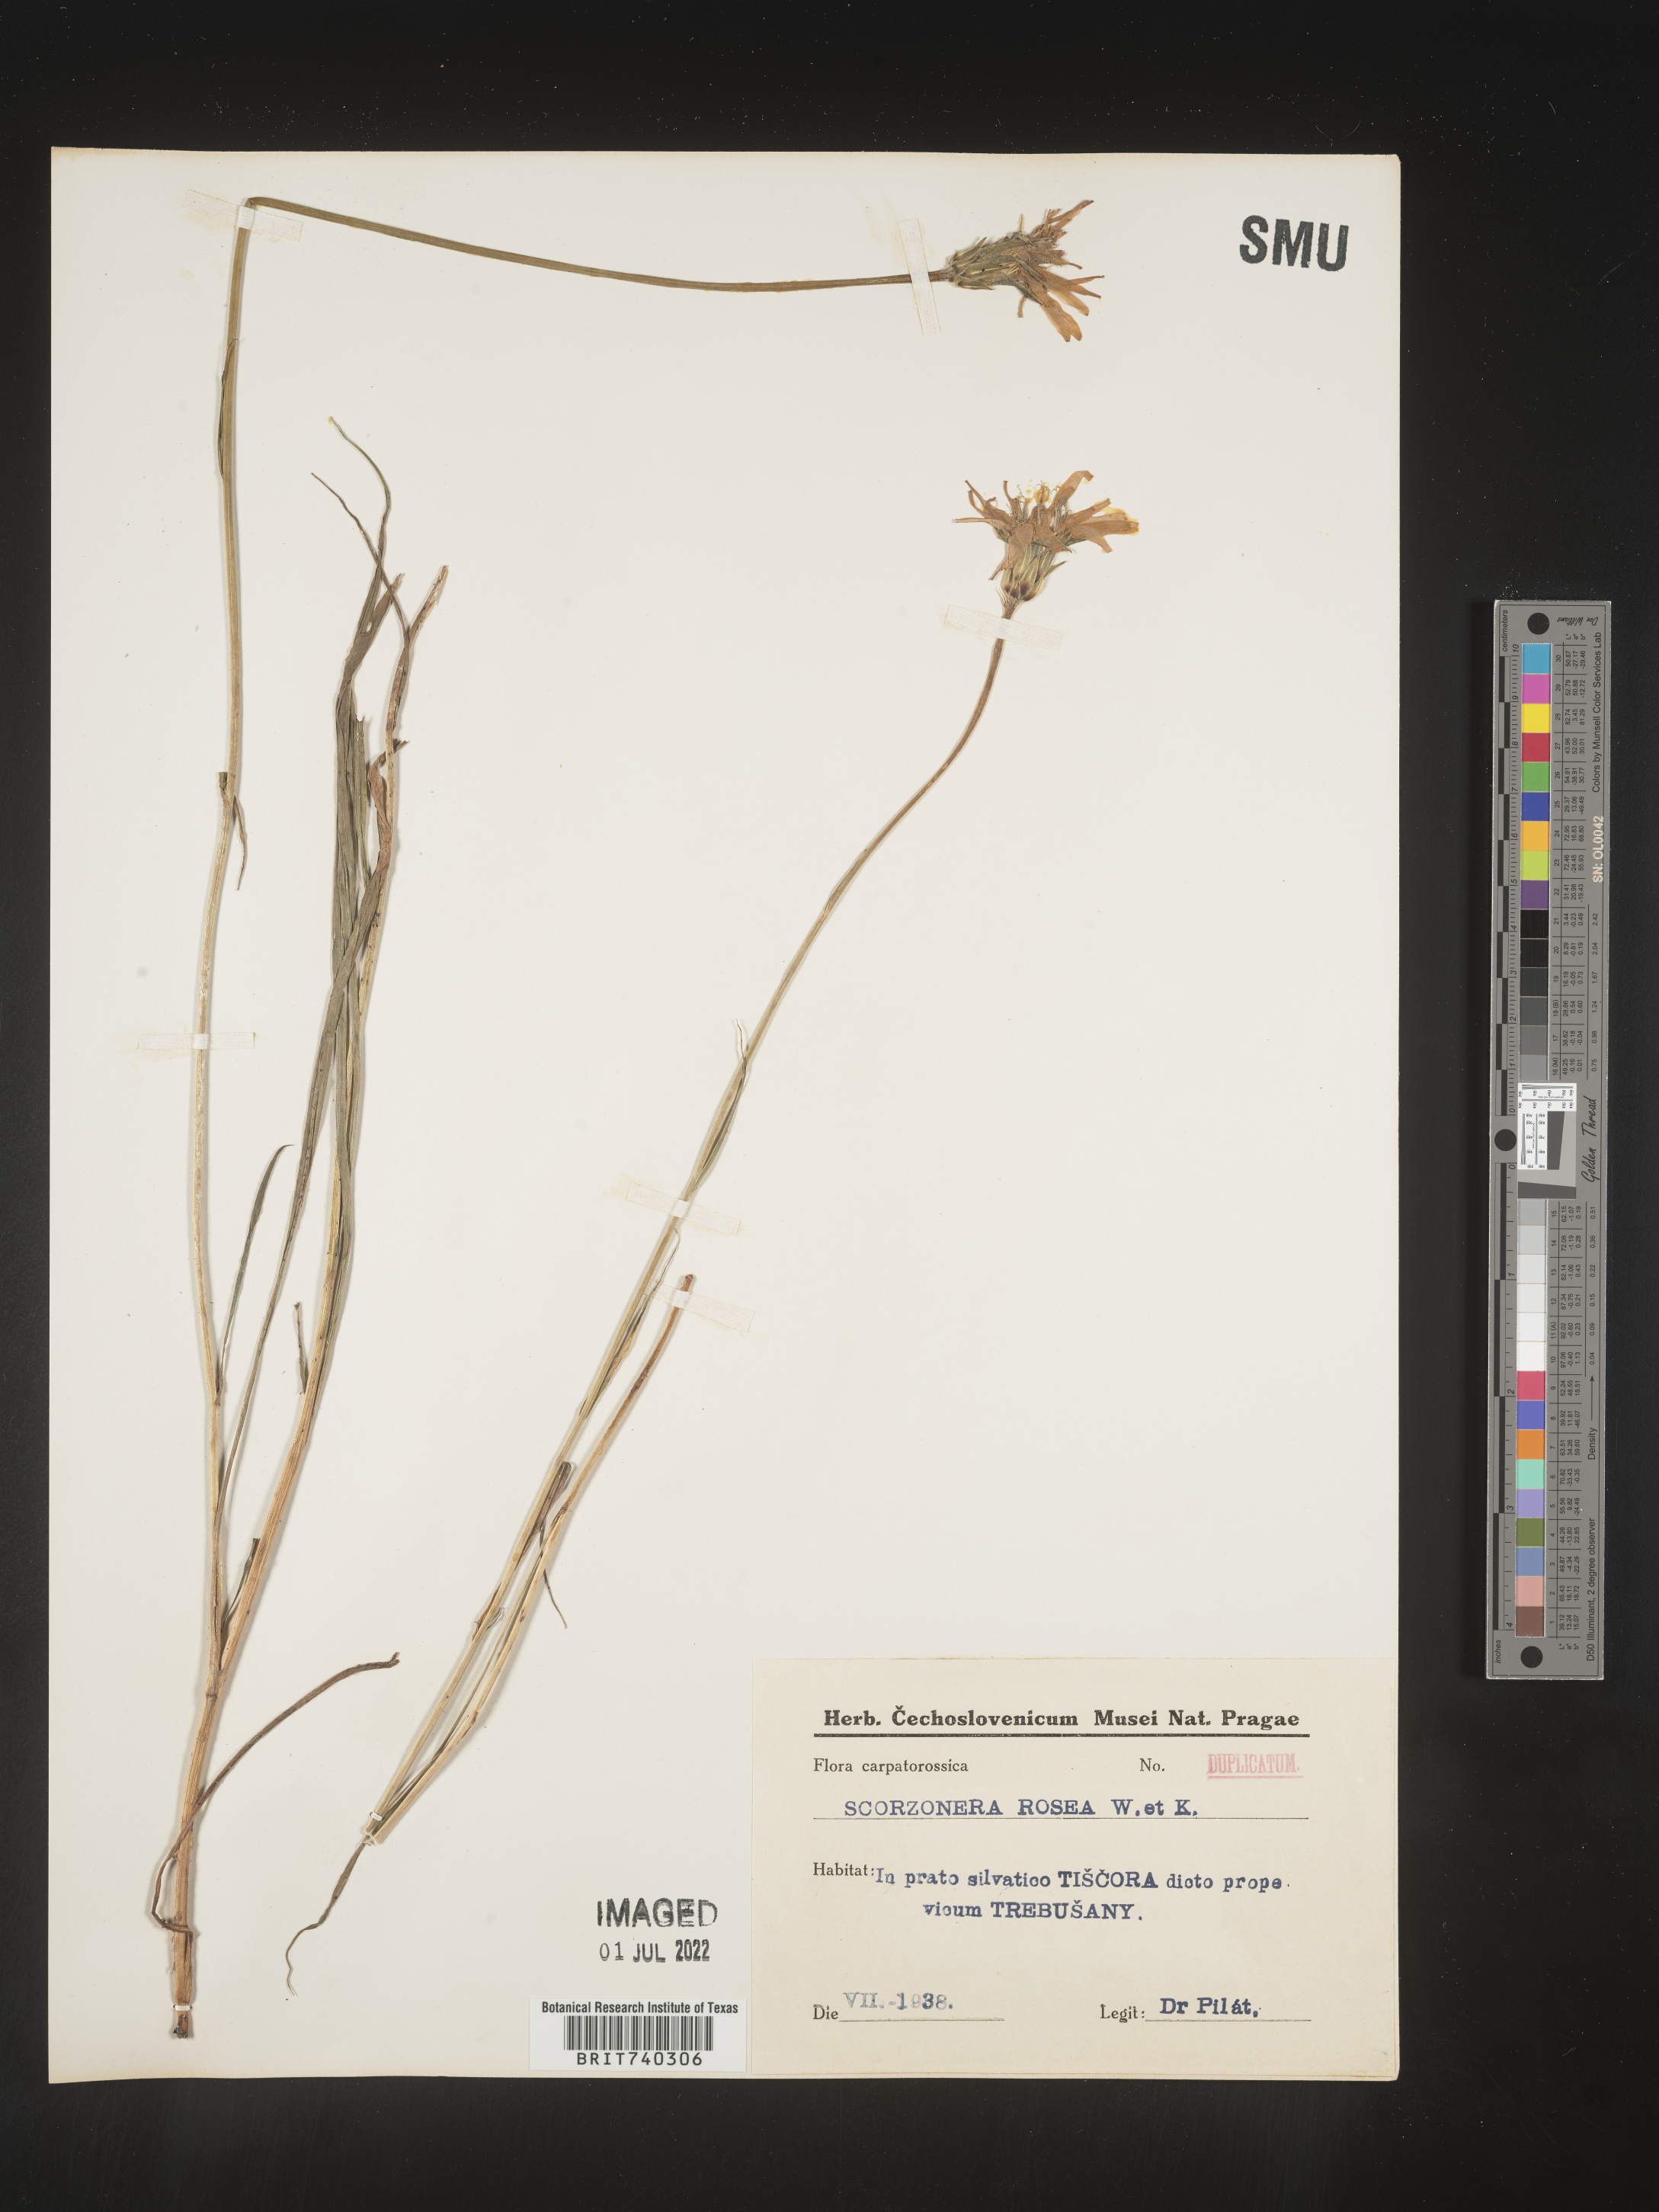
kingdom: Plantae
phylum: Tracheophyta
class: Magnoliopsida
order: Asterales
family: Asteraceae
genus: Scorzonera
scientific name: Scorzonera
